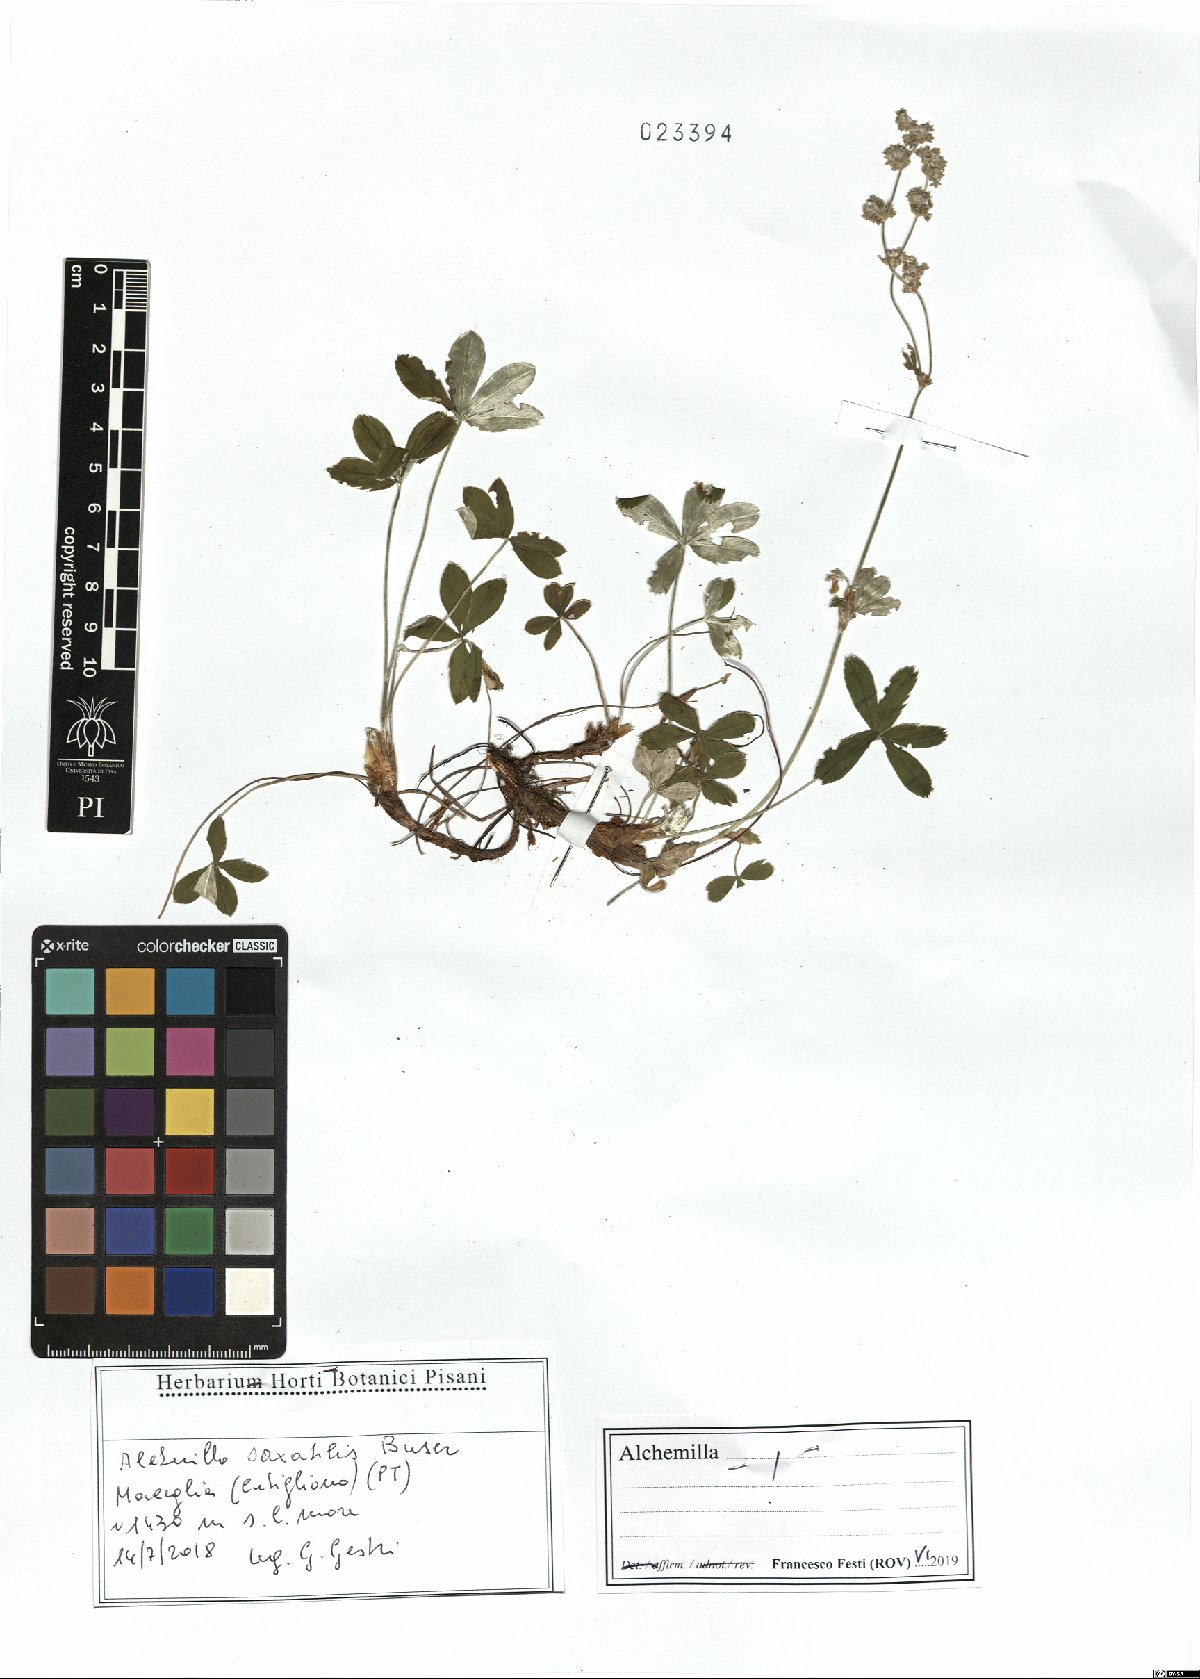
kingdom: Plantae
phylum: Tracheophyta
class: Magnoliopsida
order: Rosales
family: Rosaceae
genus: Alchemilla
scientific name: Alchemilla saxatilis
